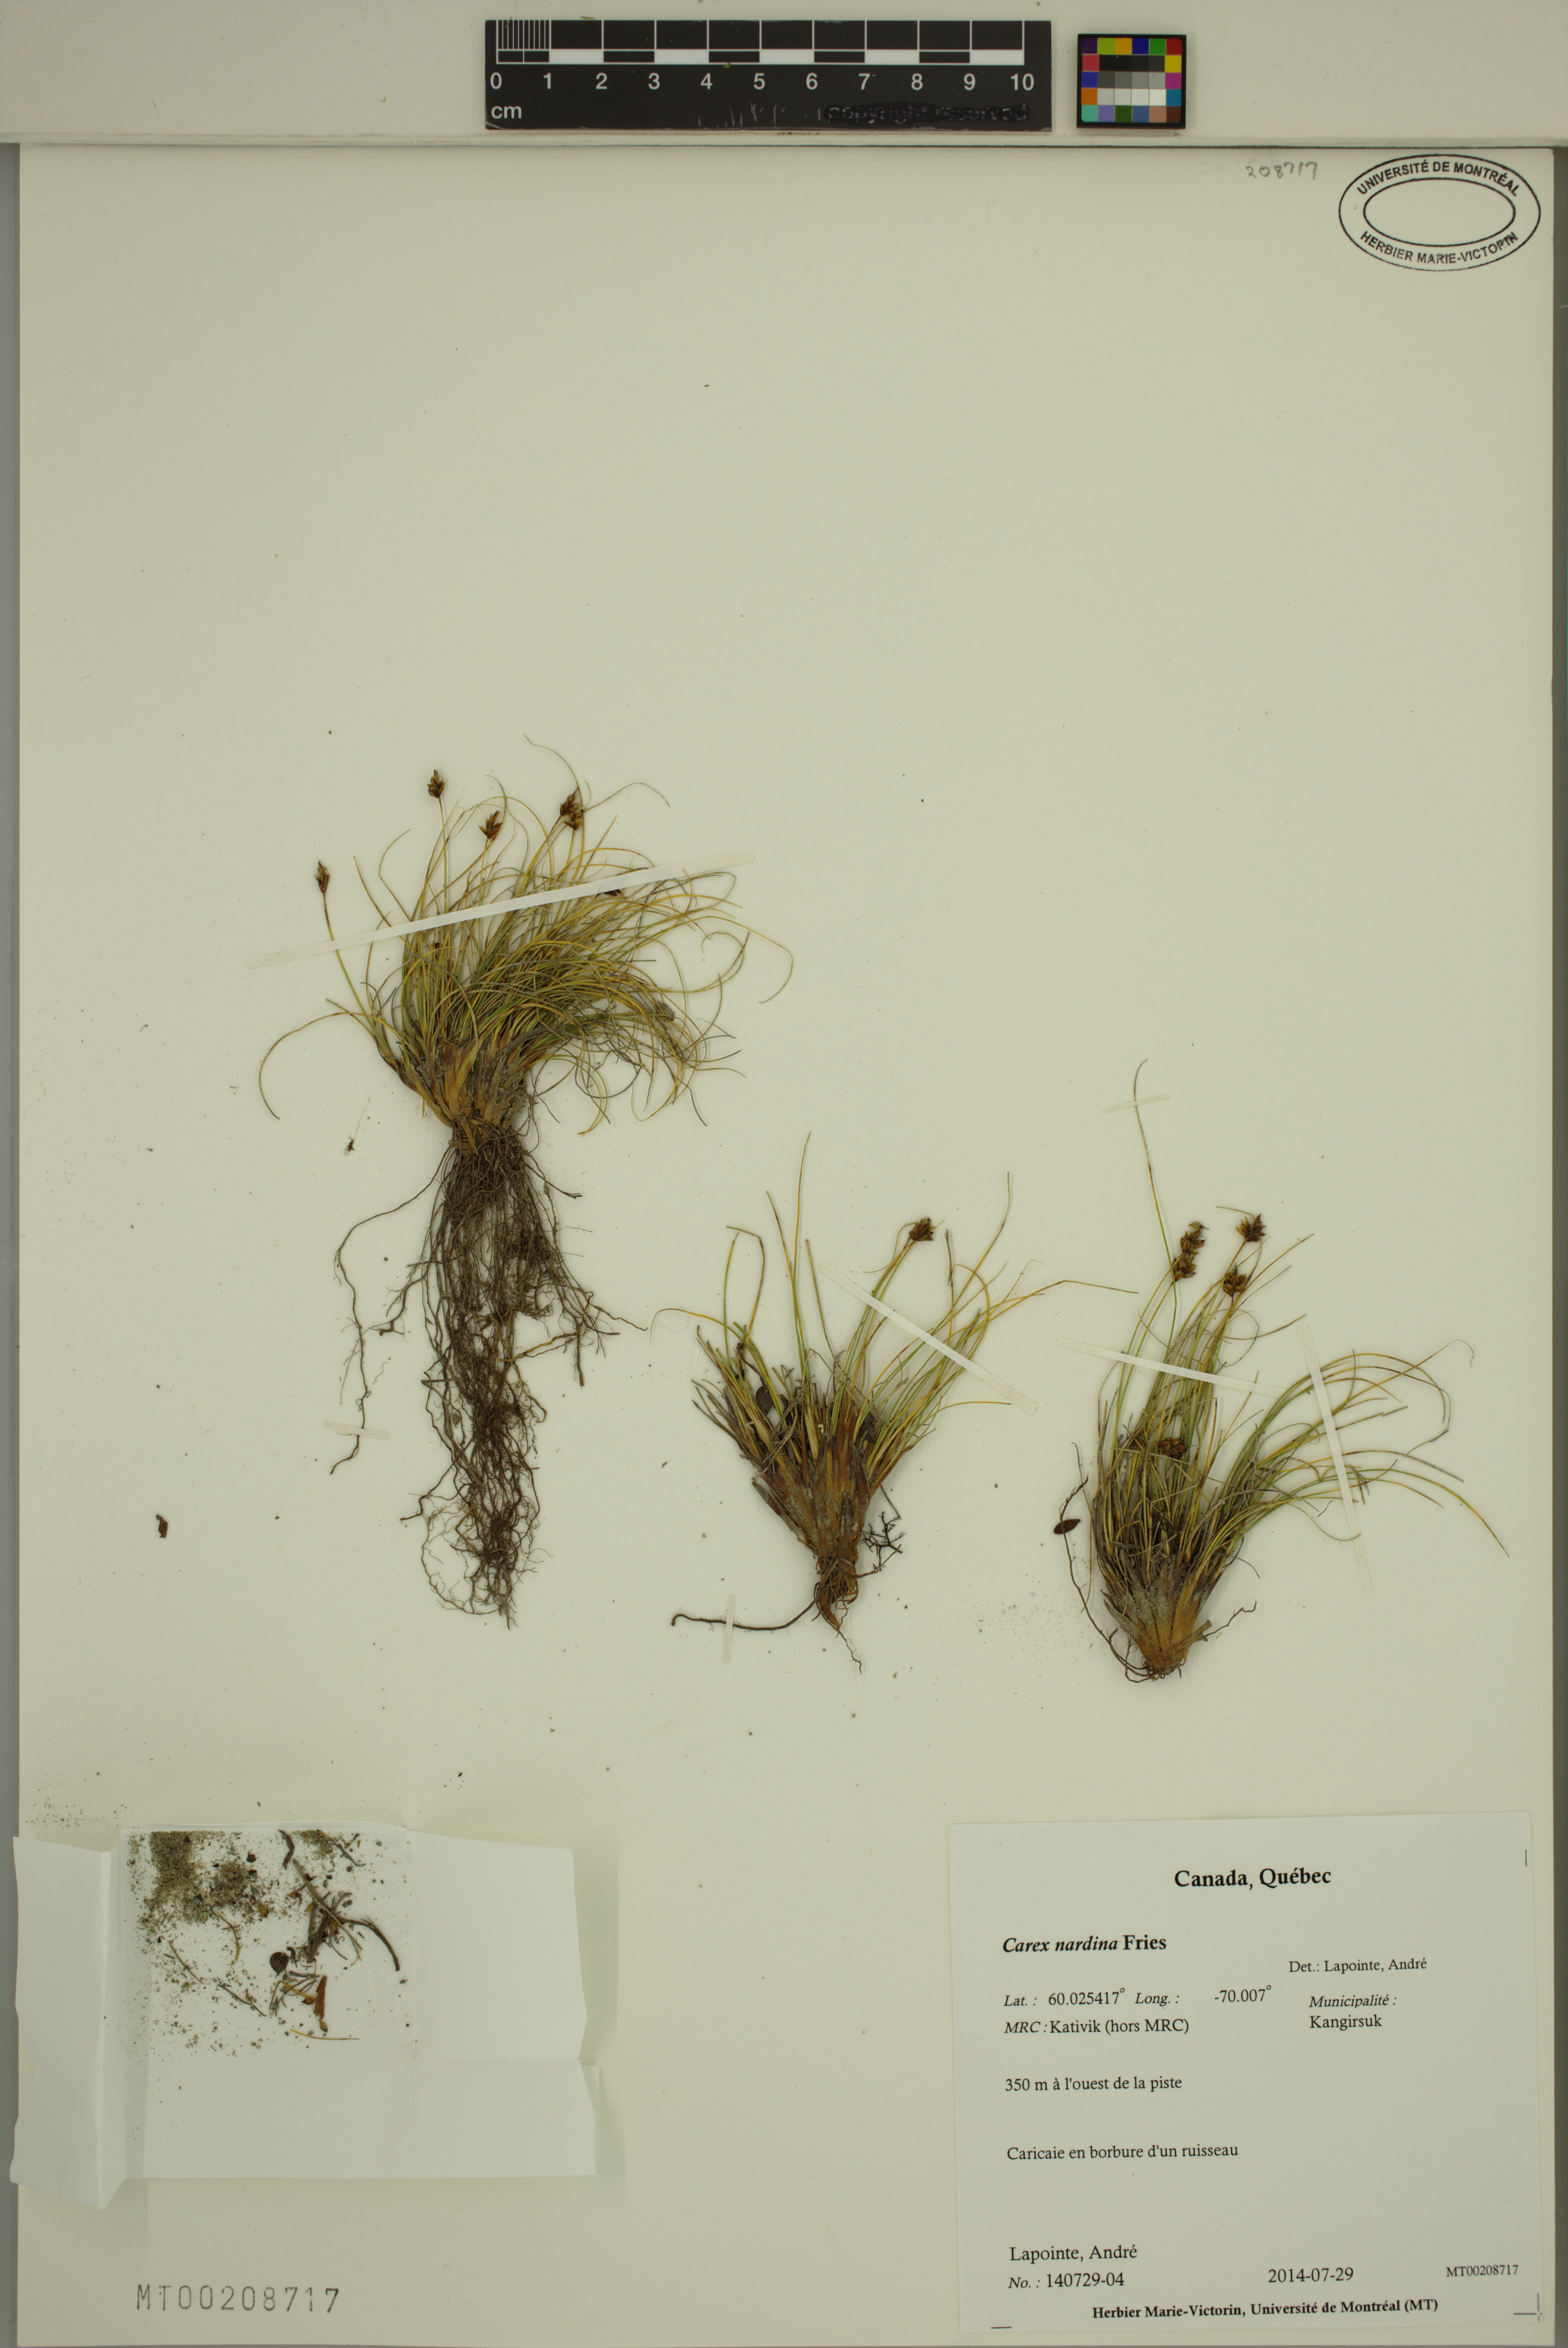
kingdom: Plantae
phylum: Tracheophyta
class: Liliopsida
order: Poales
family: Cyperaceae
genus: Carex
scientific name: Carex nardina
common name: Nard sedge
